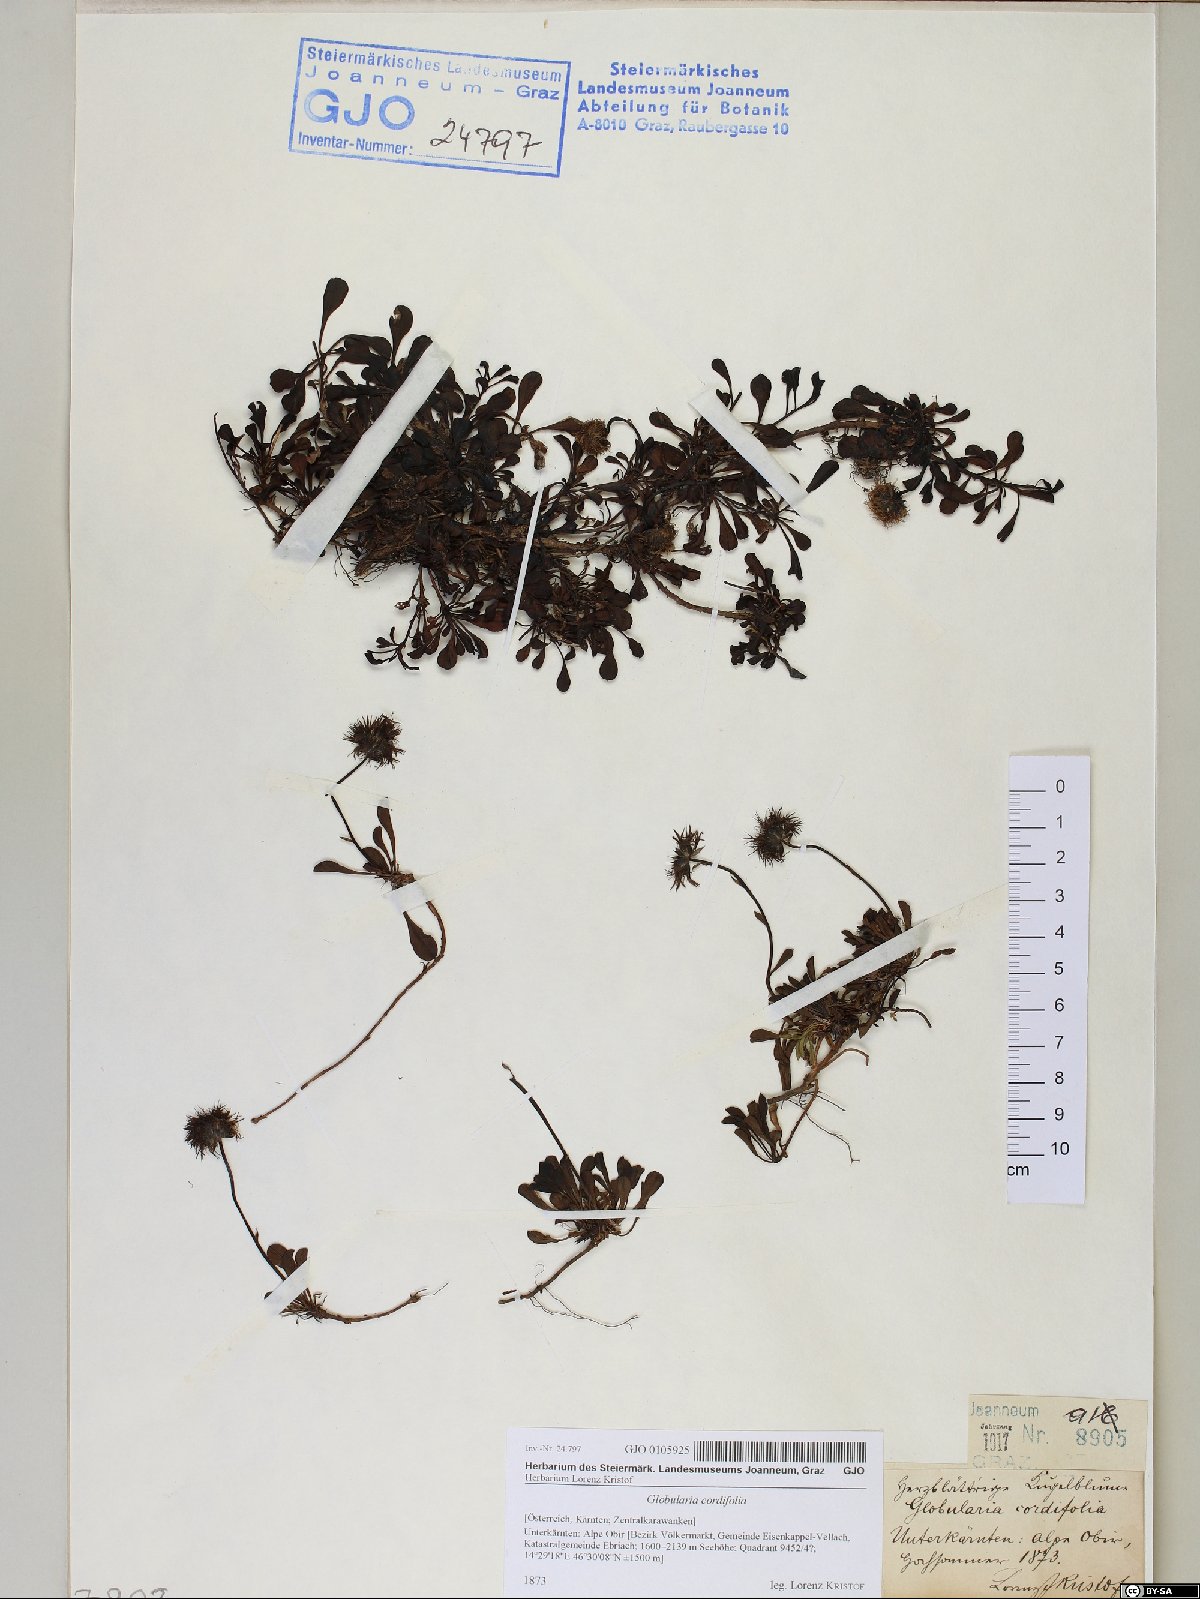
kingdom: Plantae
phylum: Tracheophyta
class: Magnoliopsida
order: Lamiales
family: Plantaginaceae
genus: Globularia
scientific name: Globularia cordifolia
